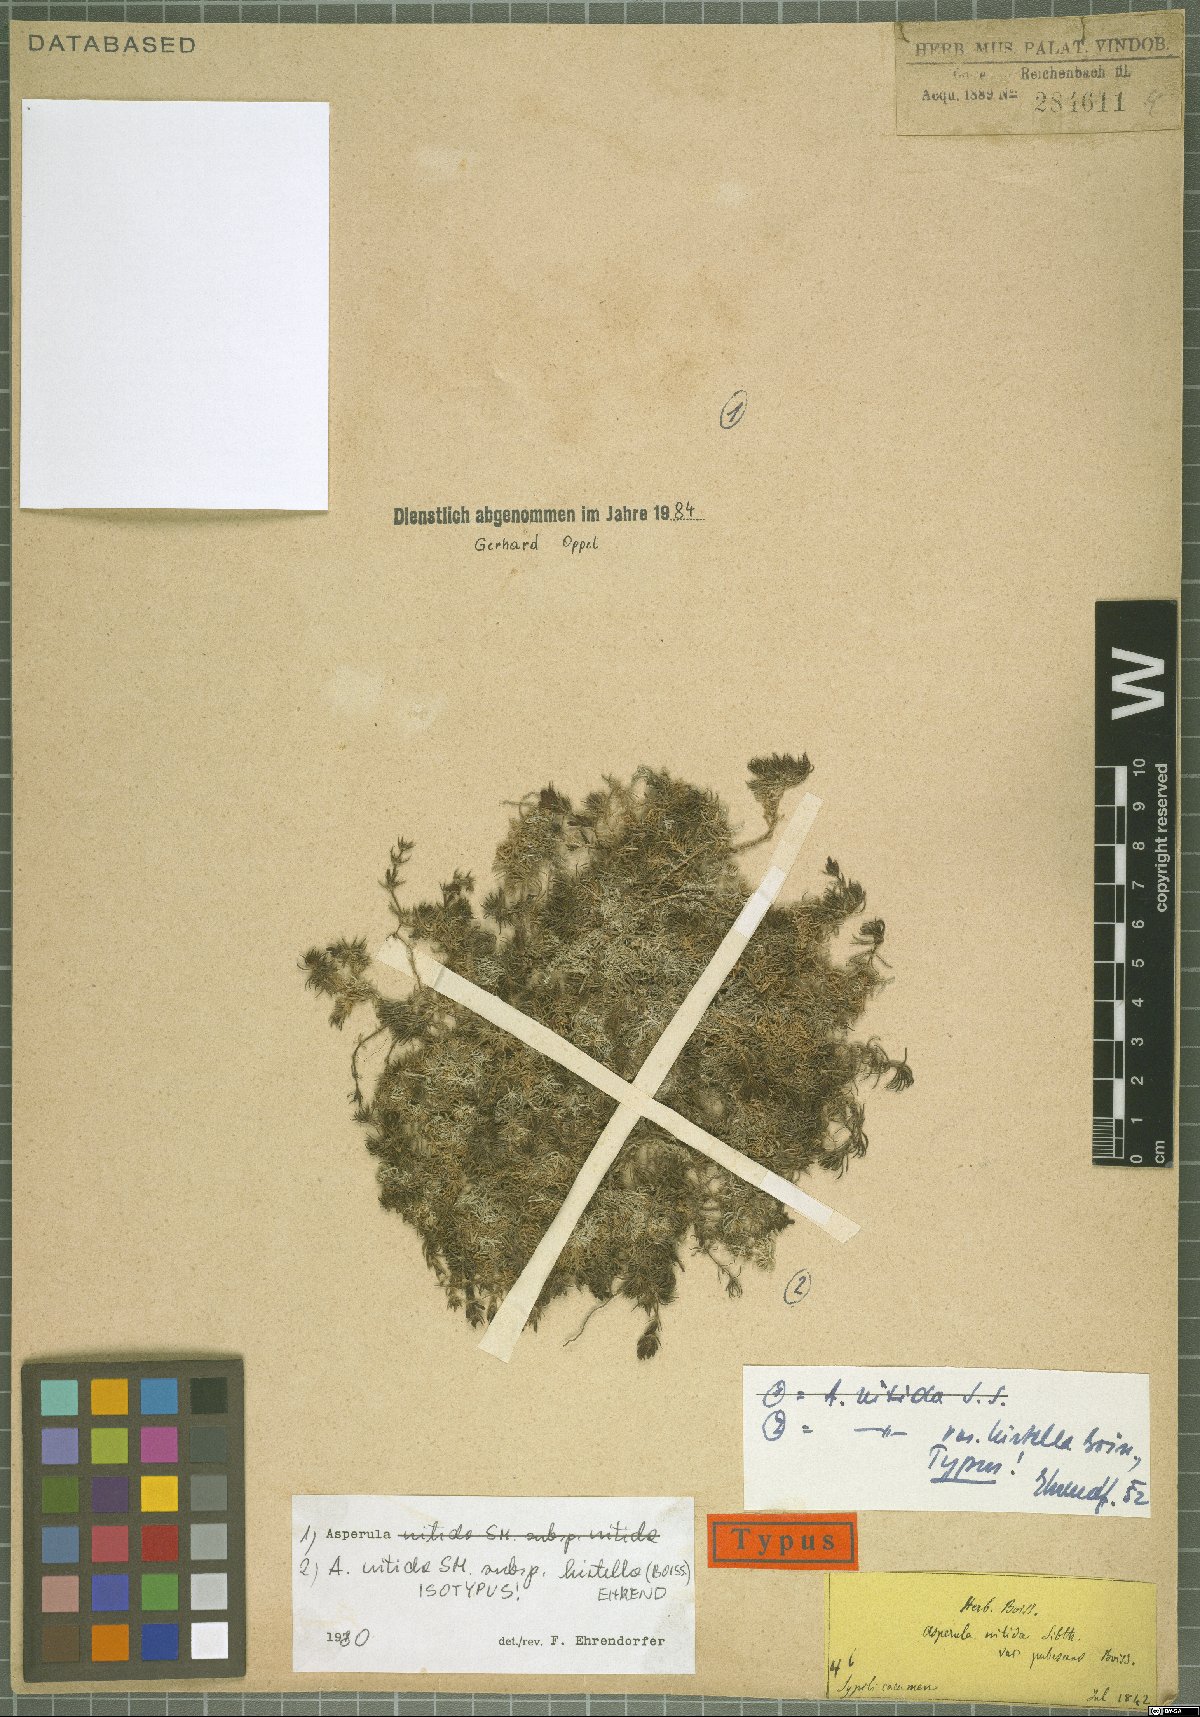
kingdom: Plantae
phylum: Tracheophyta
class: Magnoliopsida
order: Gentianales
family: Rubiaceae
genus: Cynanchica
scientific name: Cynanchica nitida
